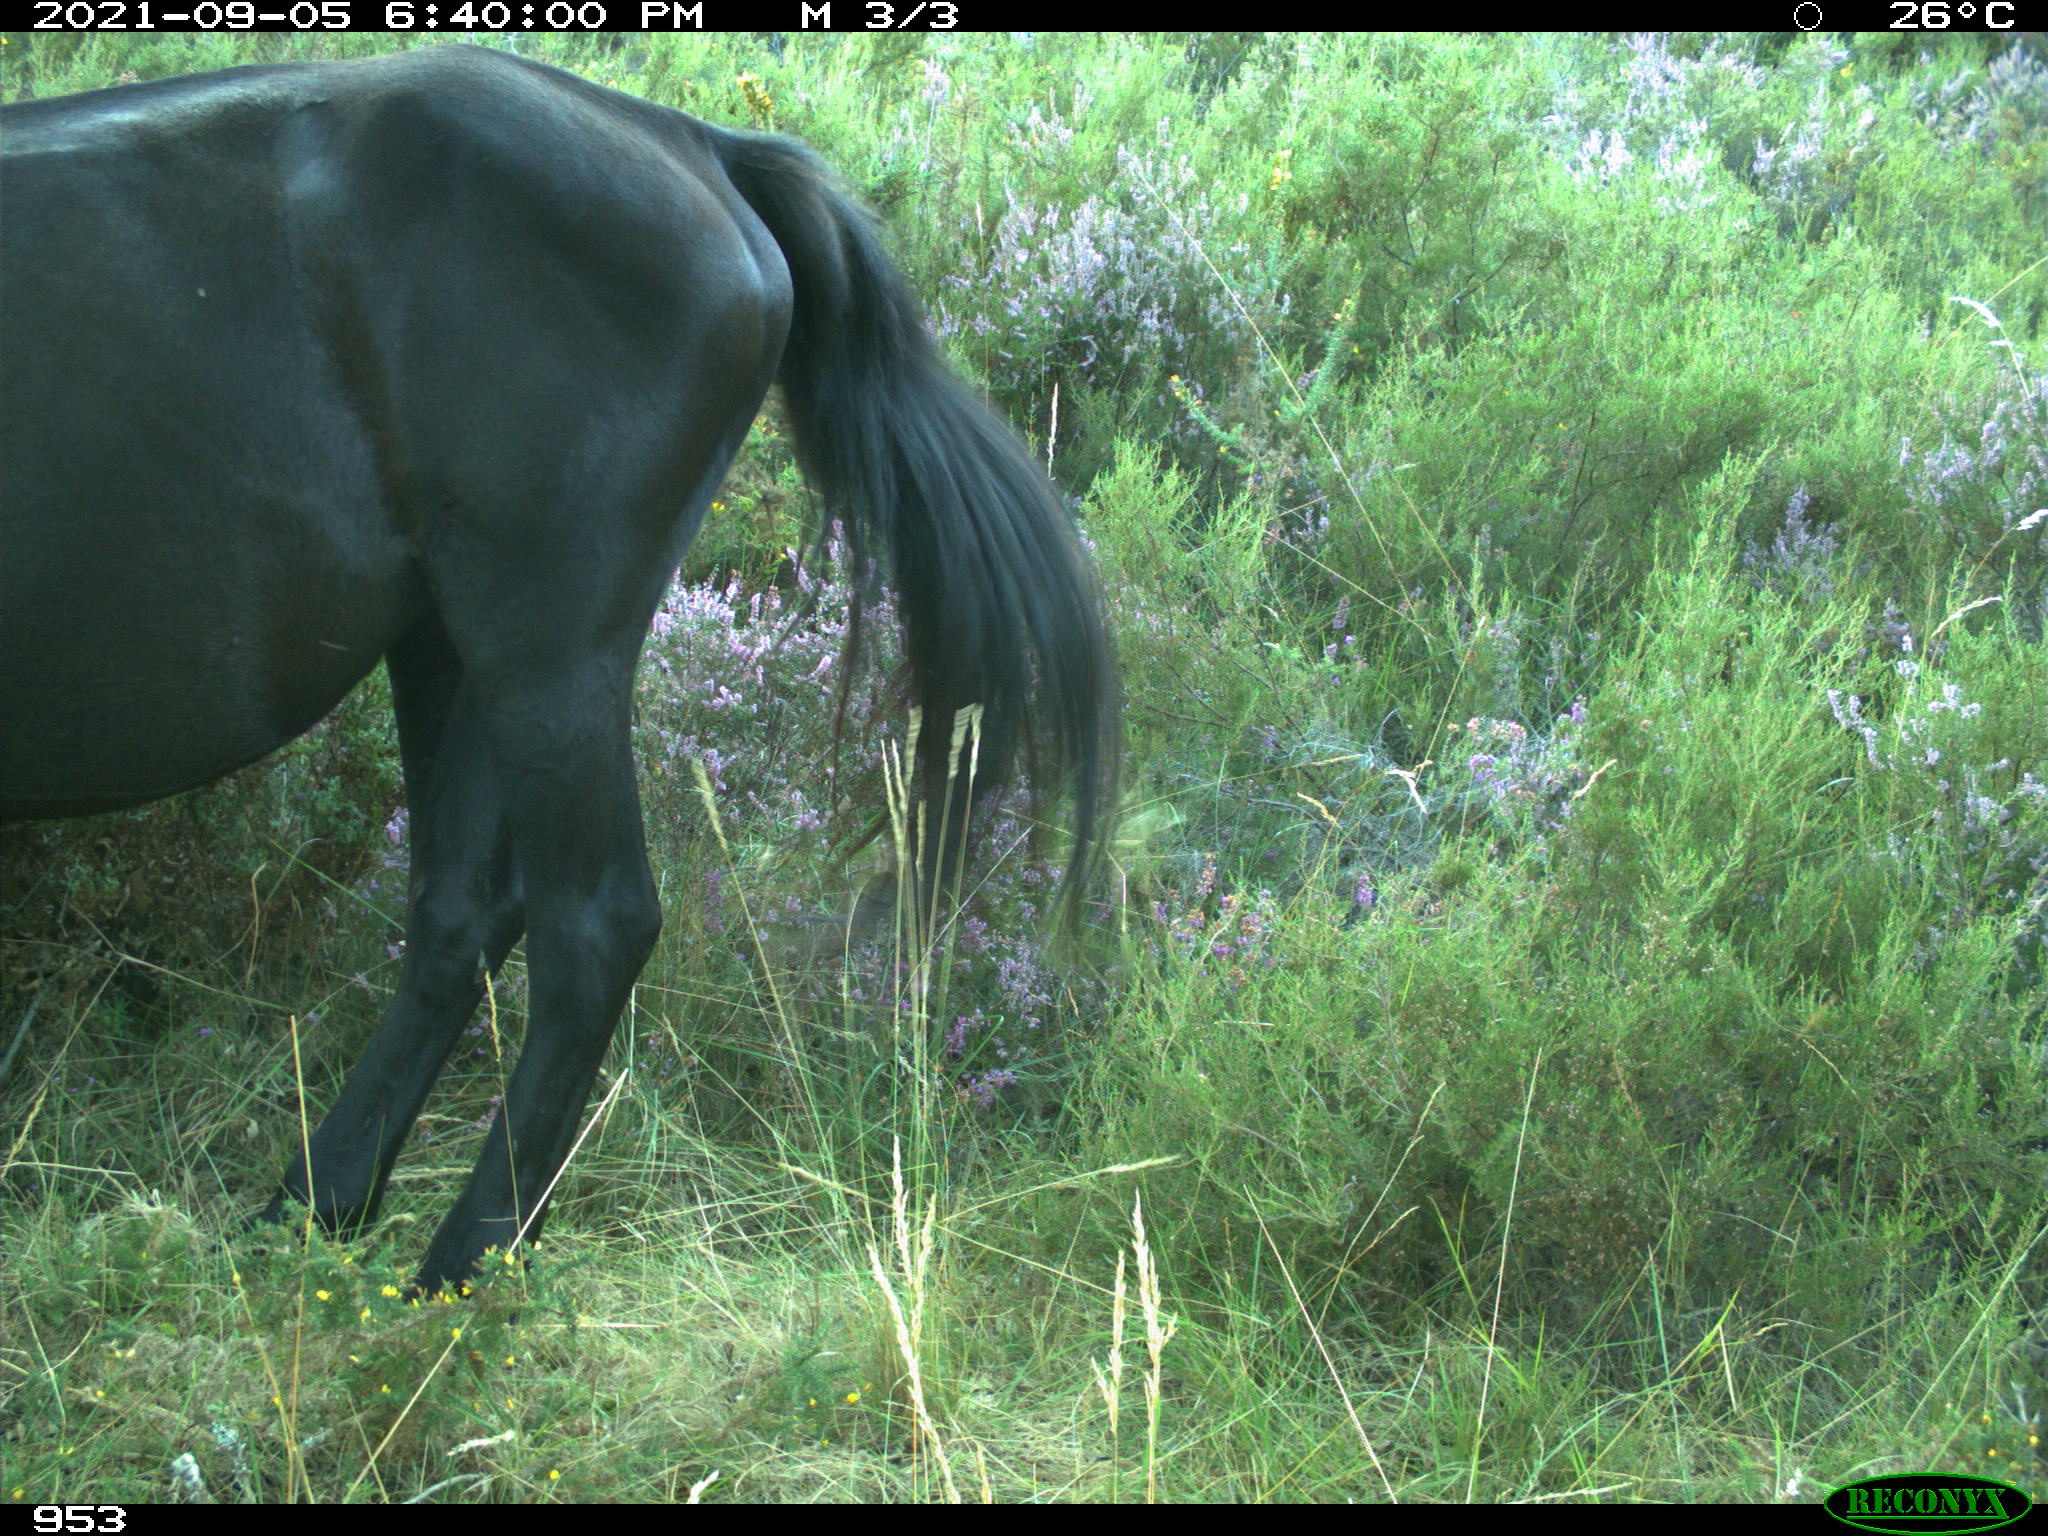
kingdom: Animalia
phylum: Chordata
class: Mammalia
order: Perissodactyla
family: Equidae
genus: Equus
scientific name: Equus caballus
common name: Horse
